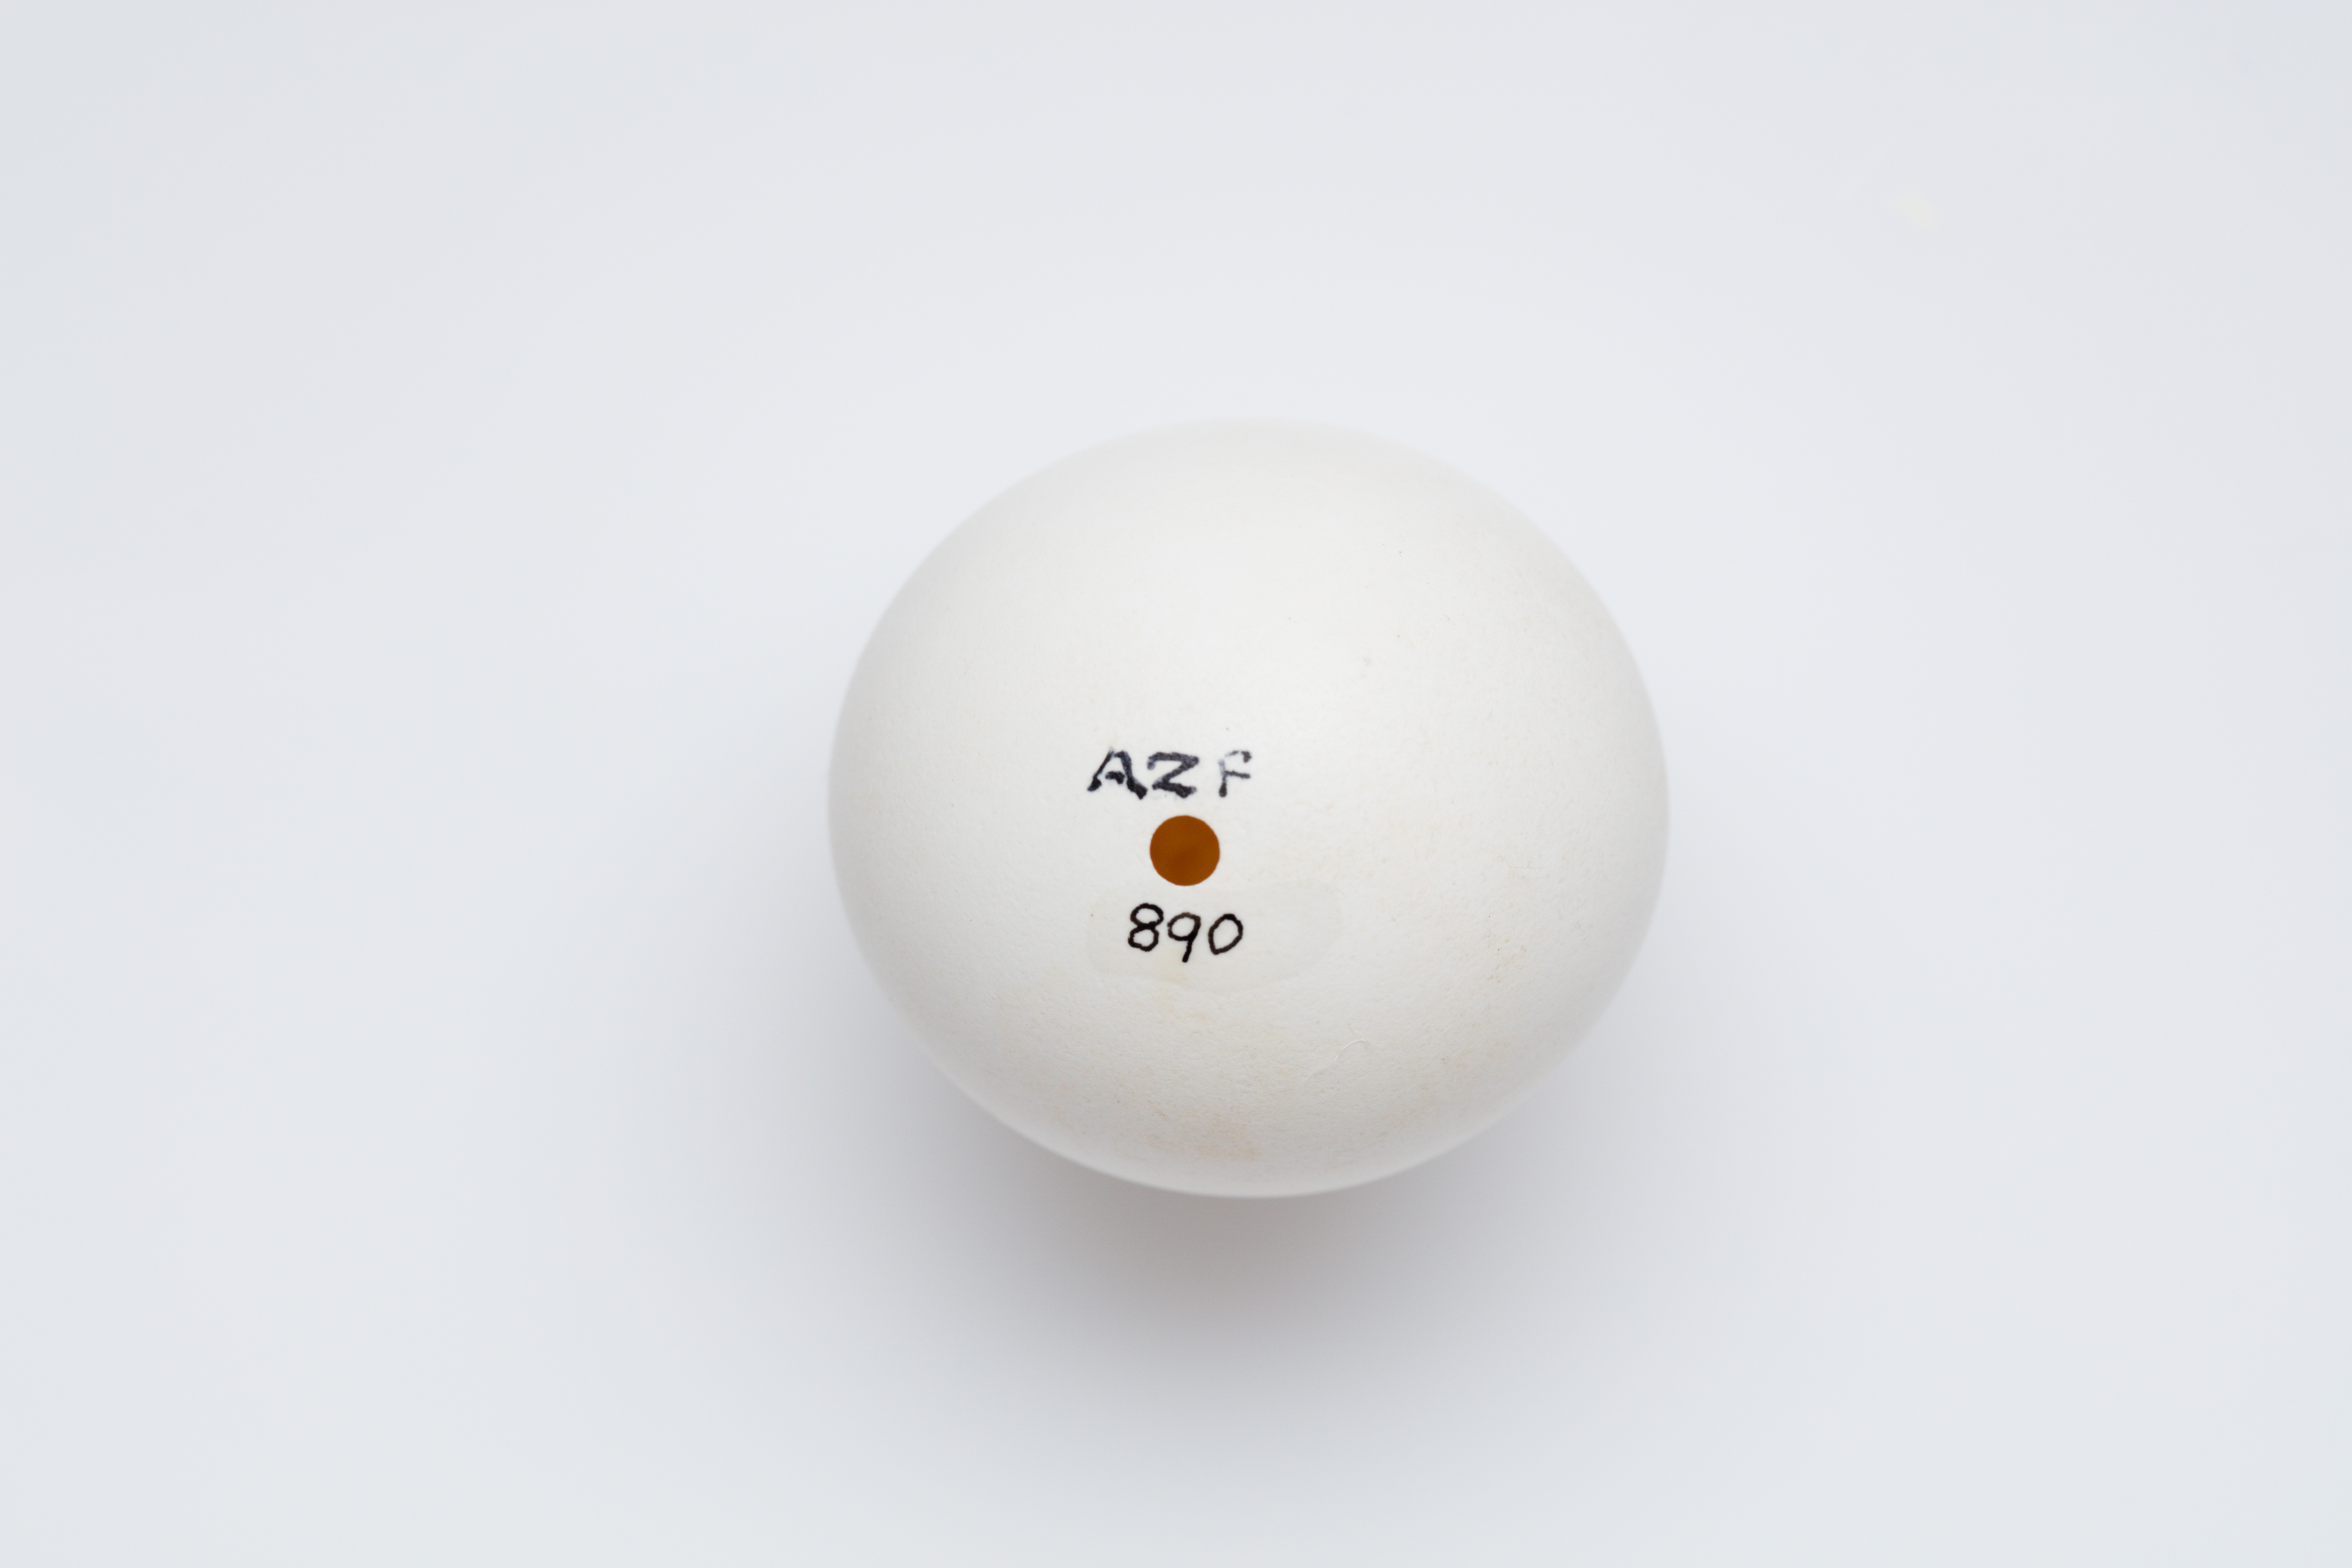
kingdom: Animalia
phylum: Chordata
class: Aves
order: Strigiformes
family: Strigidae
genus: Ninox
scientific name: Ninox novaeseelandiae
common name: Morepork
